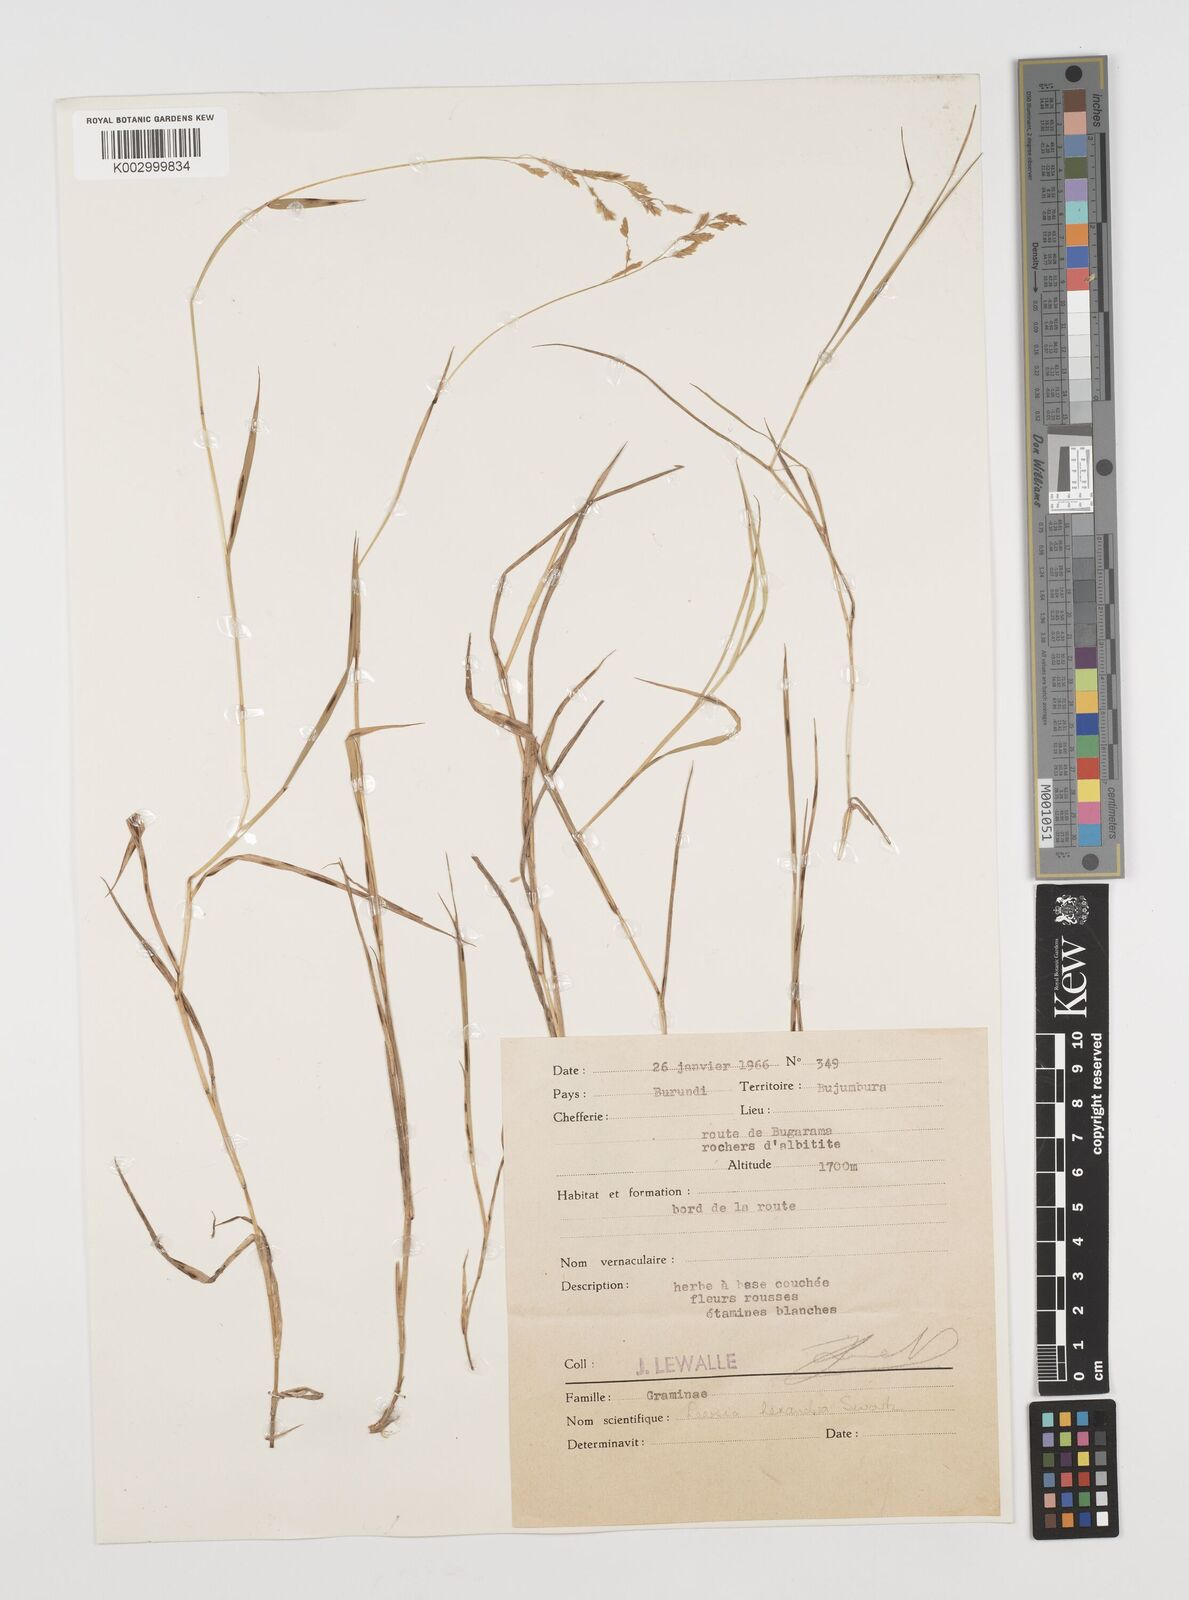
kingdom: Plantae
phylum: Tracheophyta
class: Liliopsida
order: Poales
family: Poaceae
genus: Leersia
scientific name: Leersia hexandra
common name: Southern cut grass
